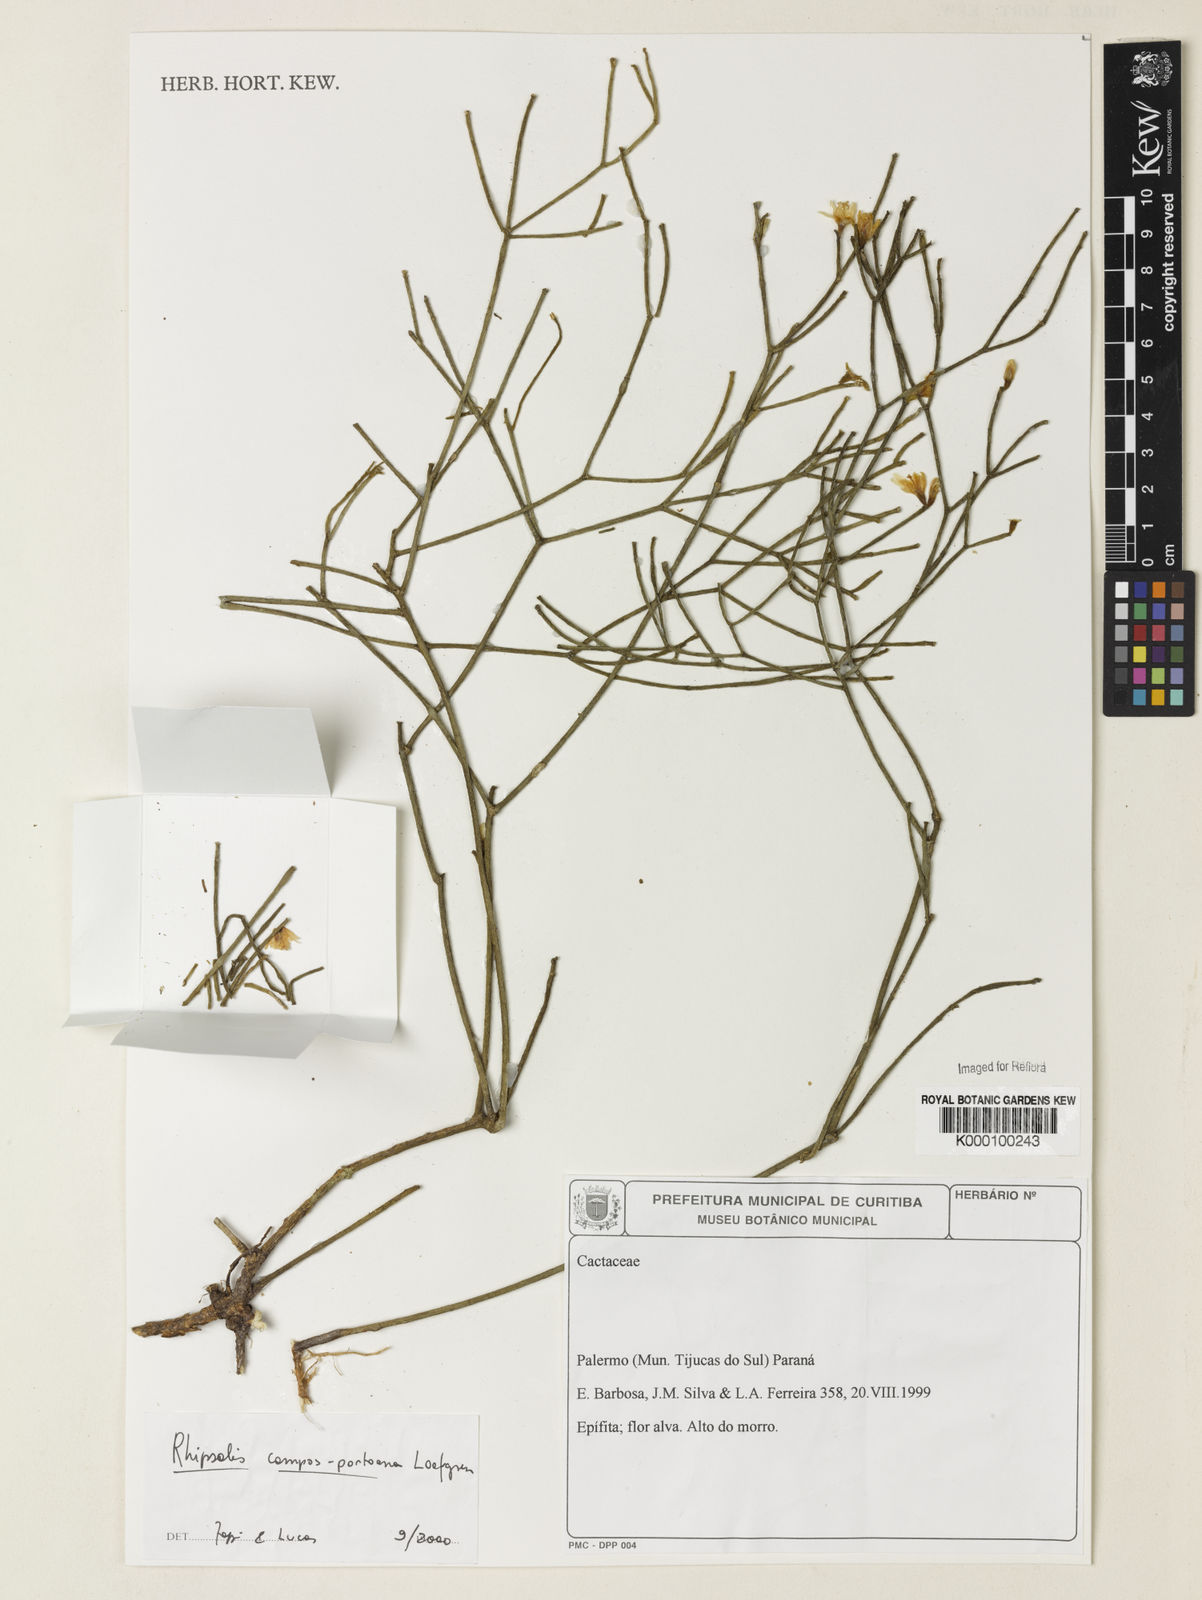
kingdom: Plantae
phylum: Tracheophyta
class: Magnoliopsida
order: Caryophyllales
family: Cactaceae
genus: Rhipsalis
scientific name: Rhipsalis campos-portoana
